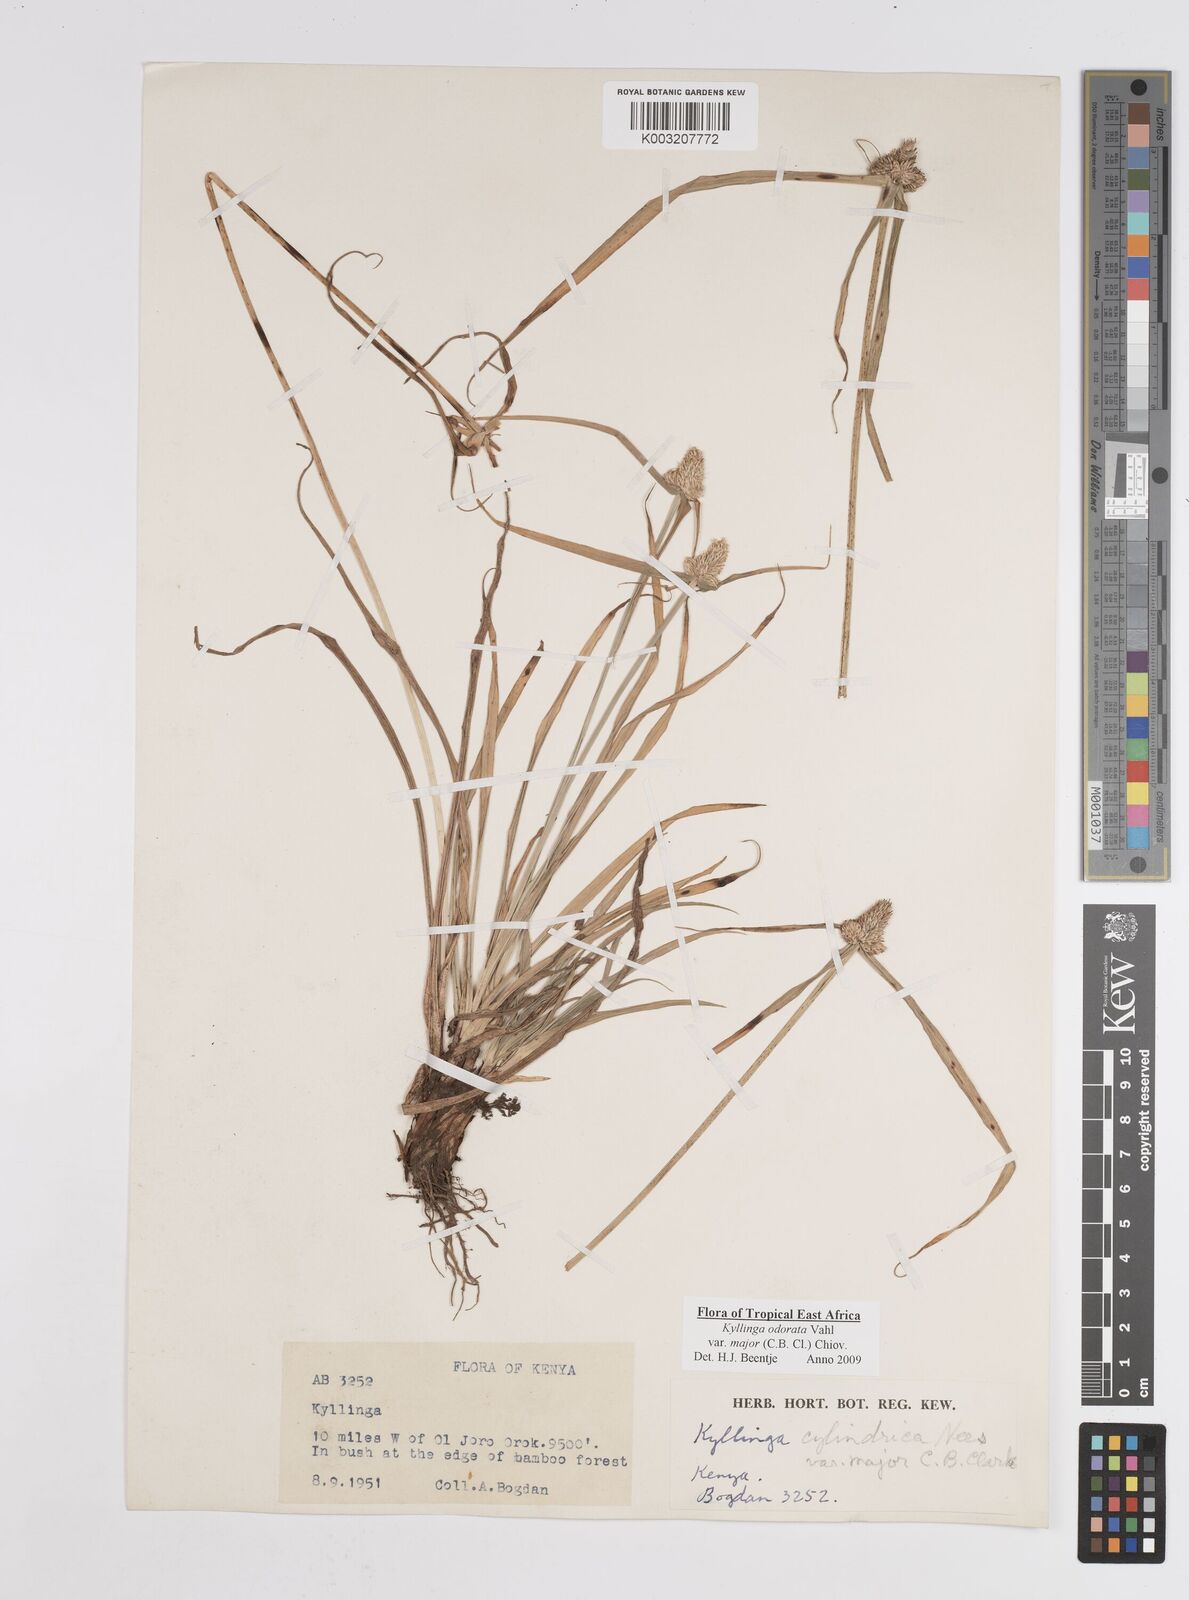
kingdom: Plantae
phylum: Tracheophyta
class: Liliopsida
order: Poales
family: Cyperaceae
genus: Cyperus
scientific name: Cyperus
